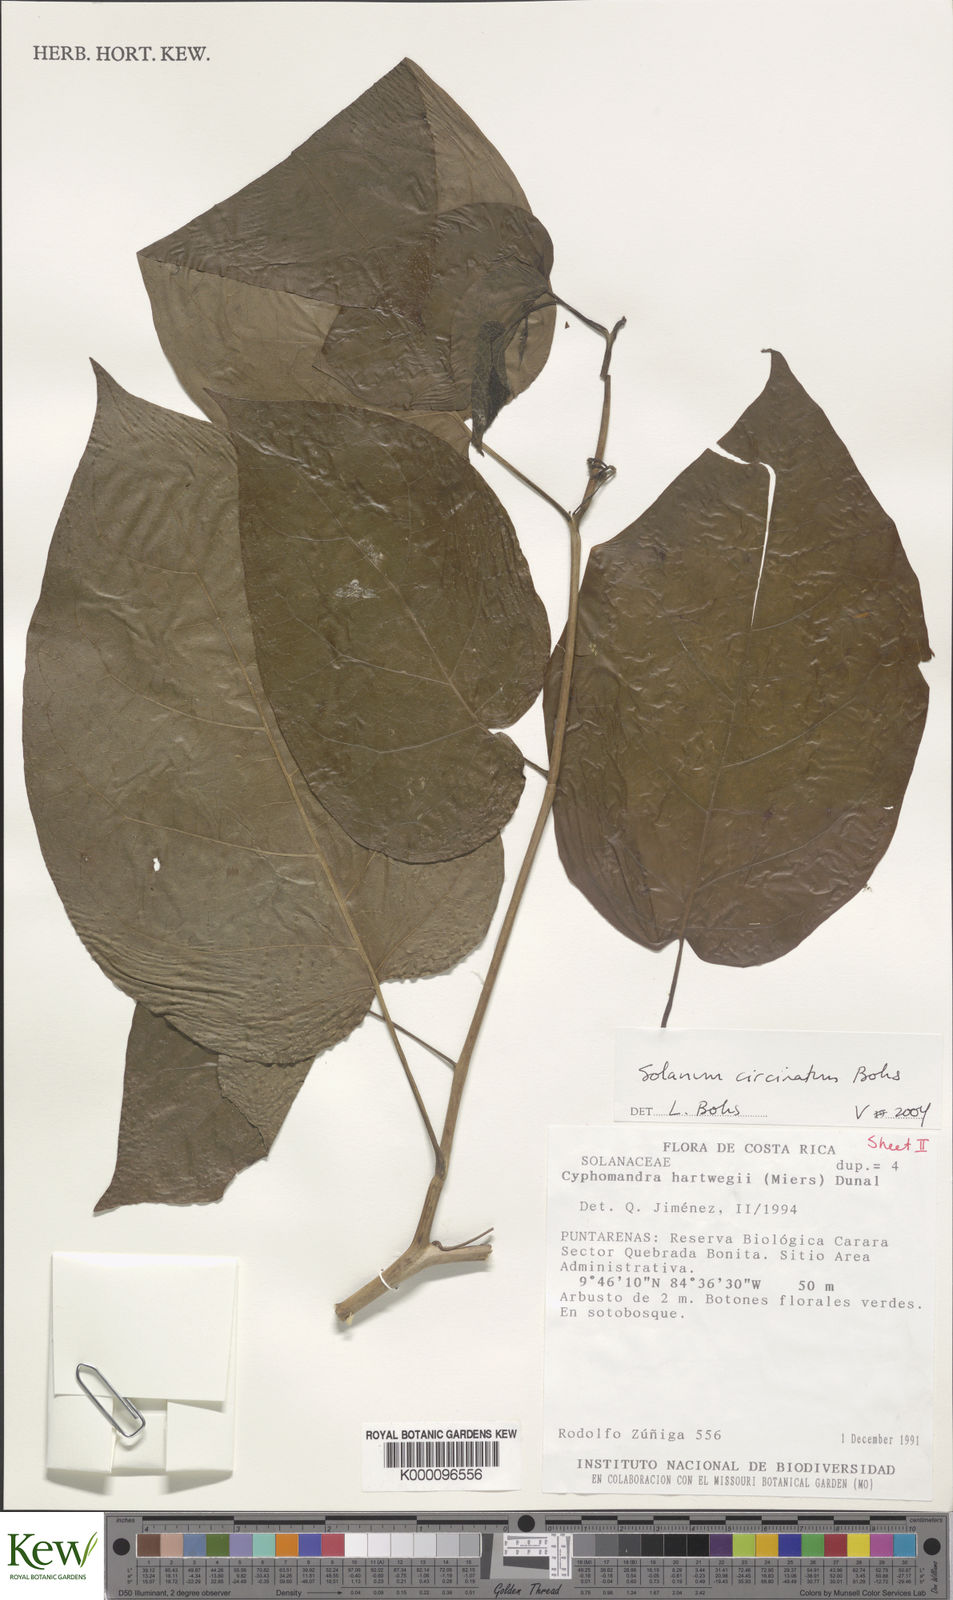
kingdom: Plantae
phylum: Tracheophyta
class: Magnoliopsida
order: Solanales
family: Solanaceae
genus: Solanum
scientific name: Solanum splendens
